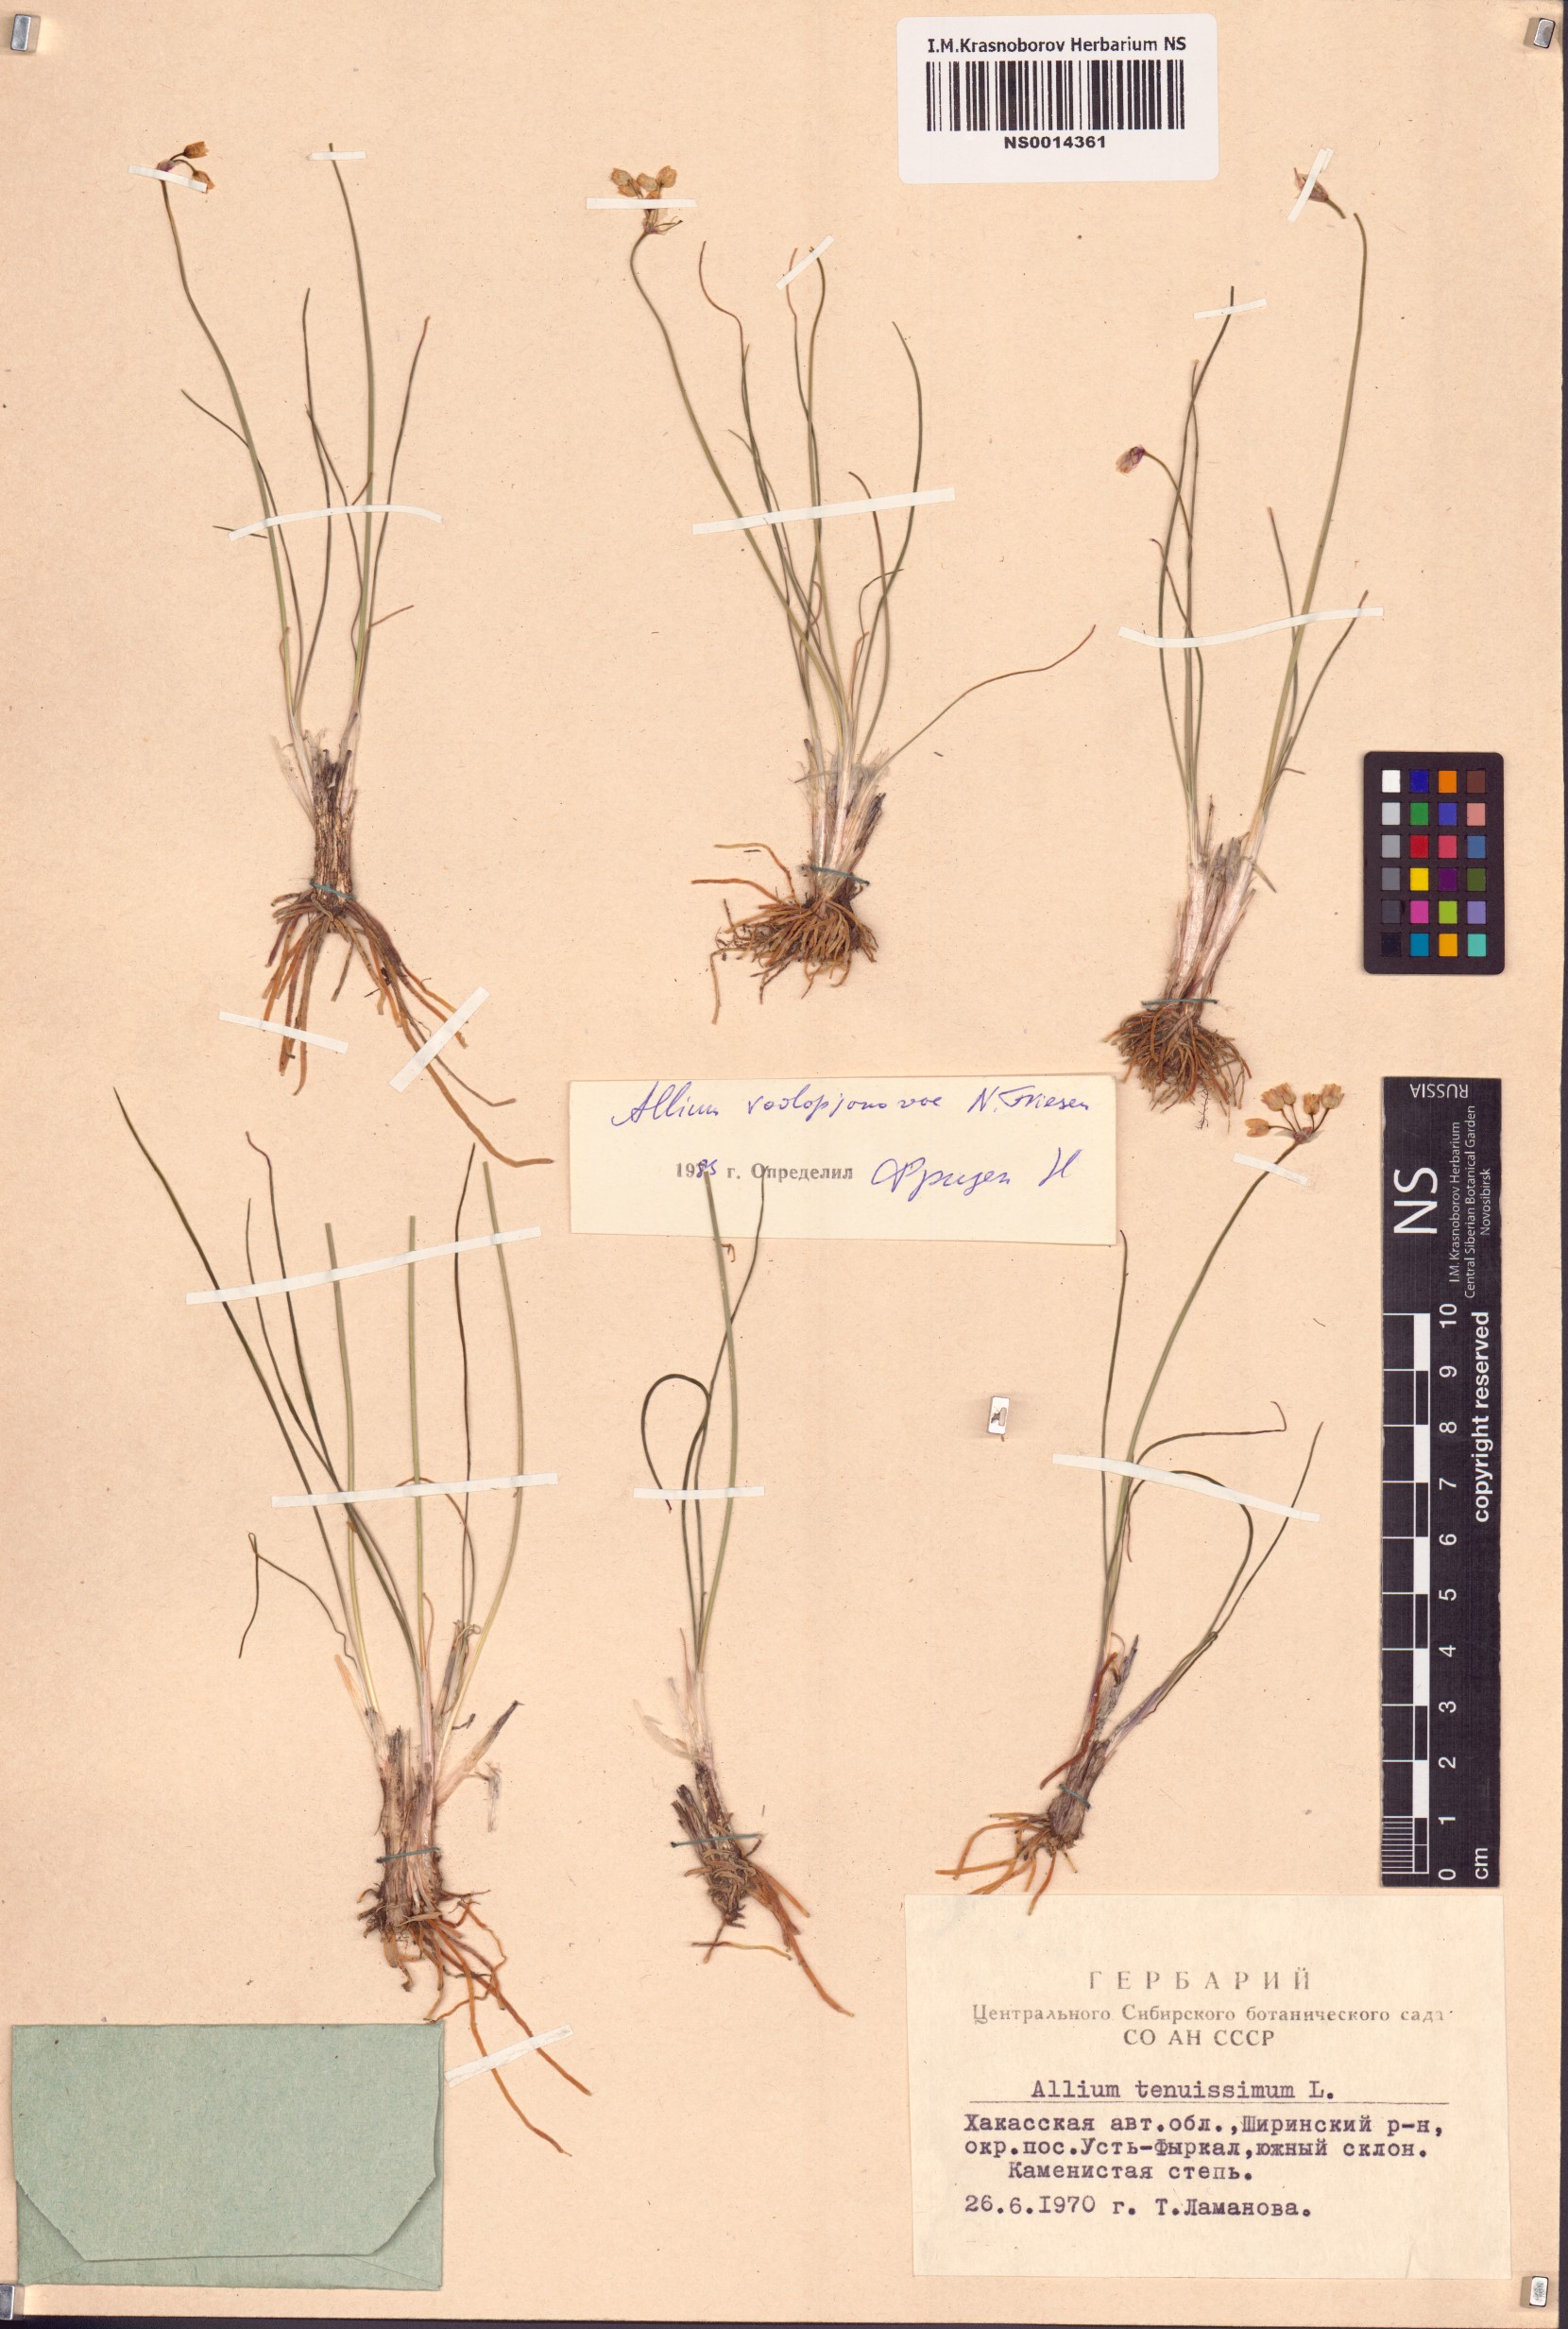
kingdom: Plantae
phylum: Tracheophyta
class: Liliopsida
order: Asparagales
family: Amaryllidaceae
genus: Allium
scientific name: Allium vodopjanovae
